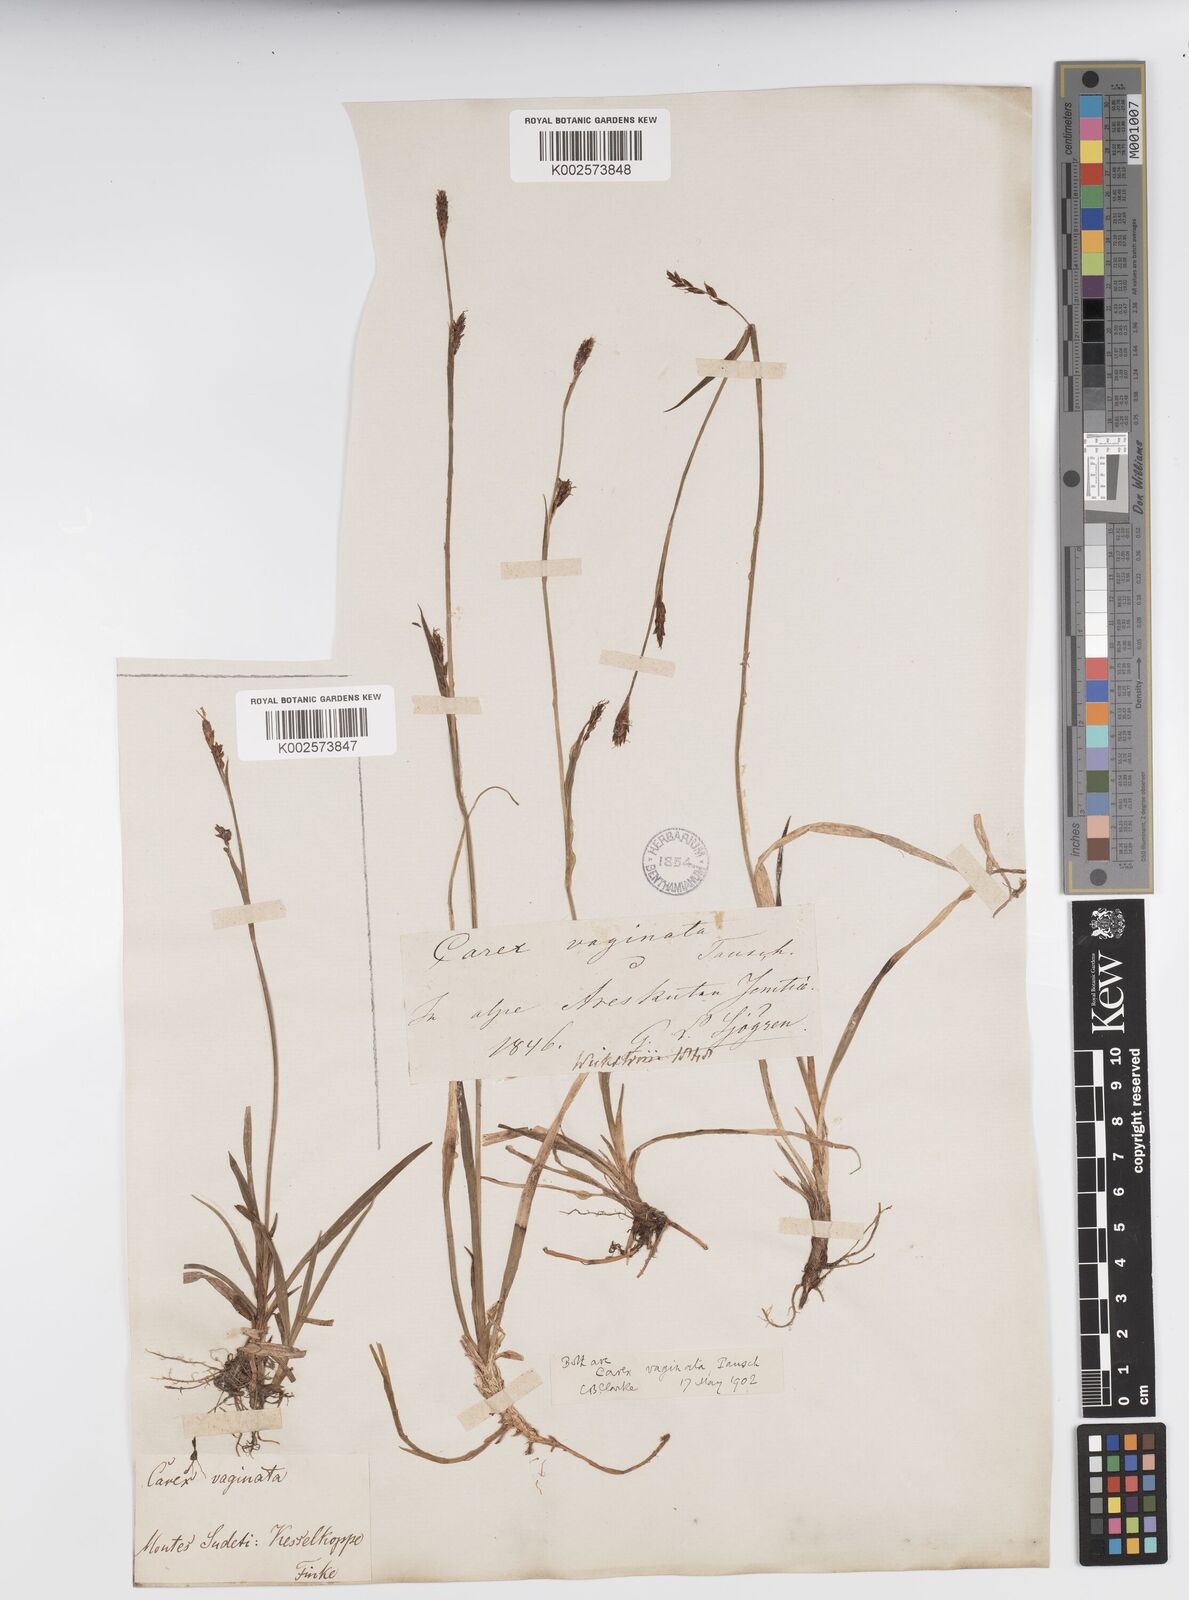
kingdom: Plantae
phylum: Tracheophyta
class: Liliopsida
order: Poales
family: Cyperaceae
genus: Carex
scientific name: Carex vaginata
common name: Sheathed sedge
